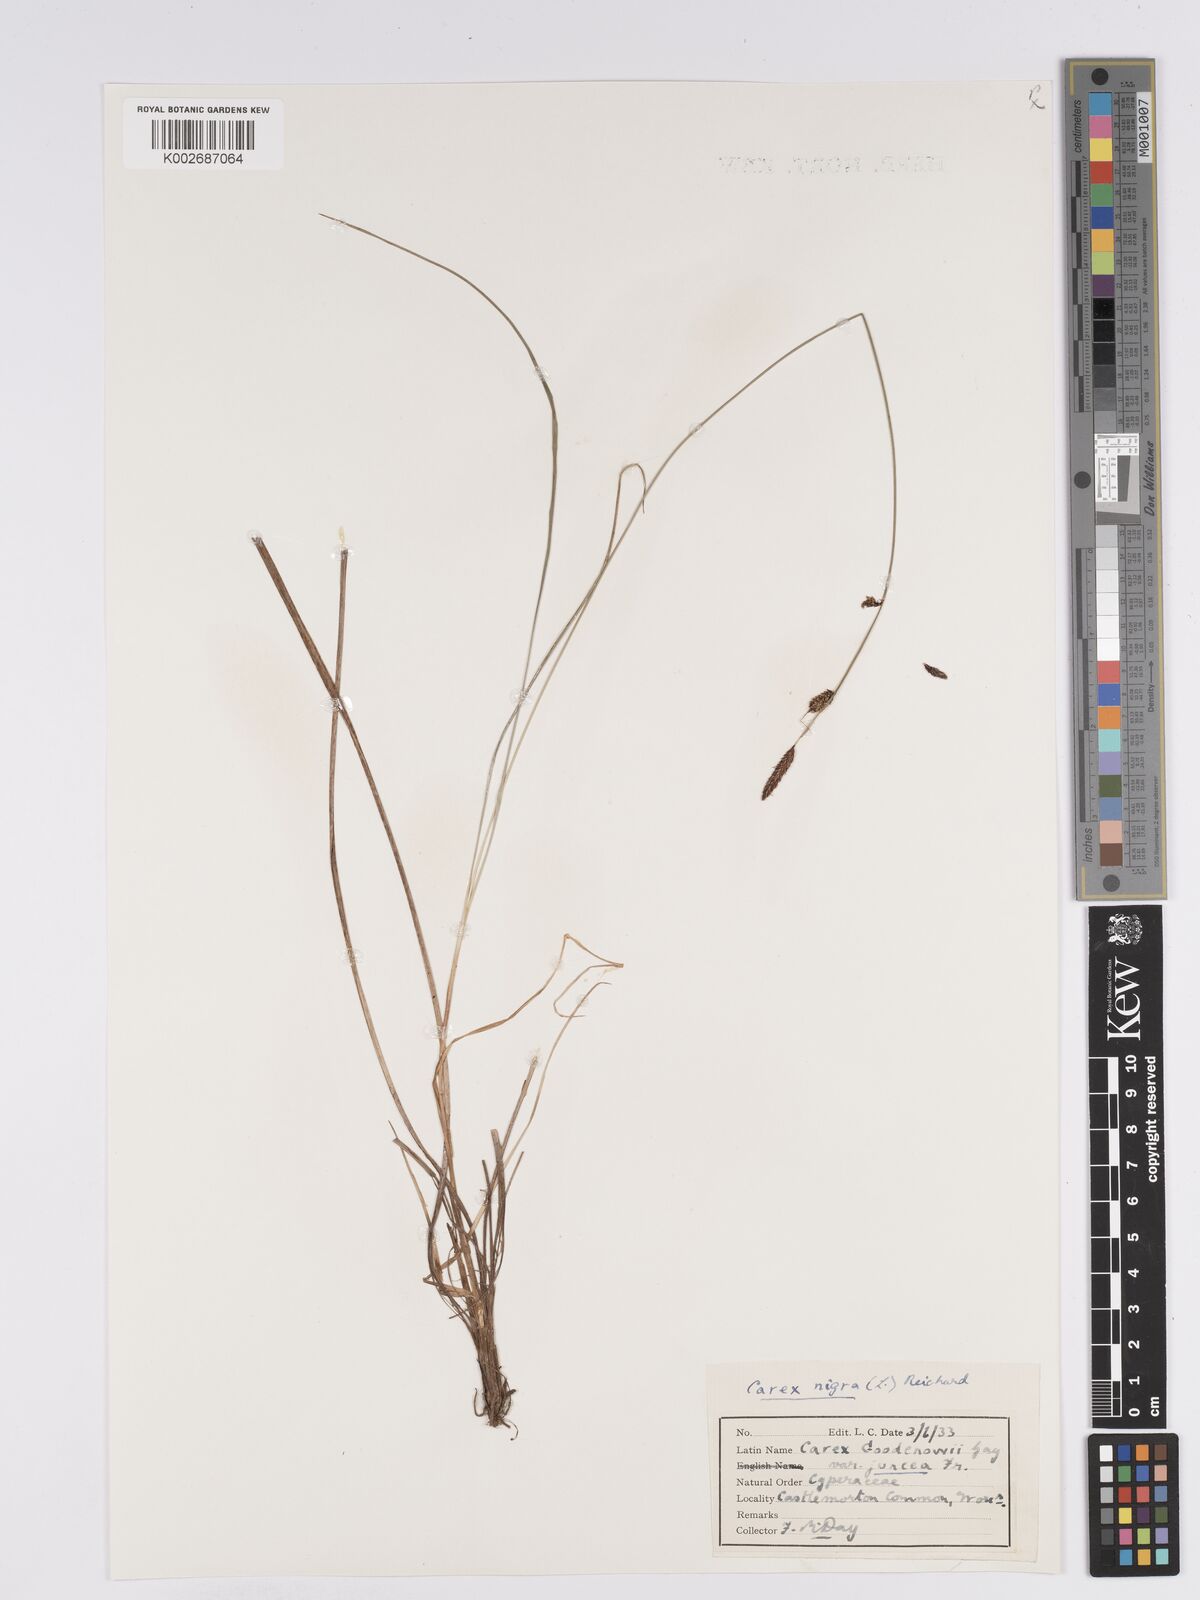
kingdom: Plantae
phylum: Tracheophyta
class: Liliopsida
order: Poales
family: Cyperaceae
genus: Carex
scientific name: Carex nigra
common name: Common sedge
